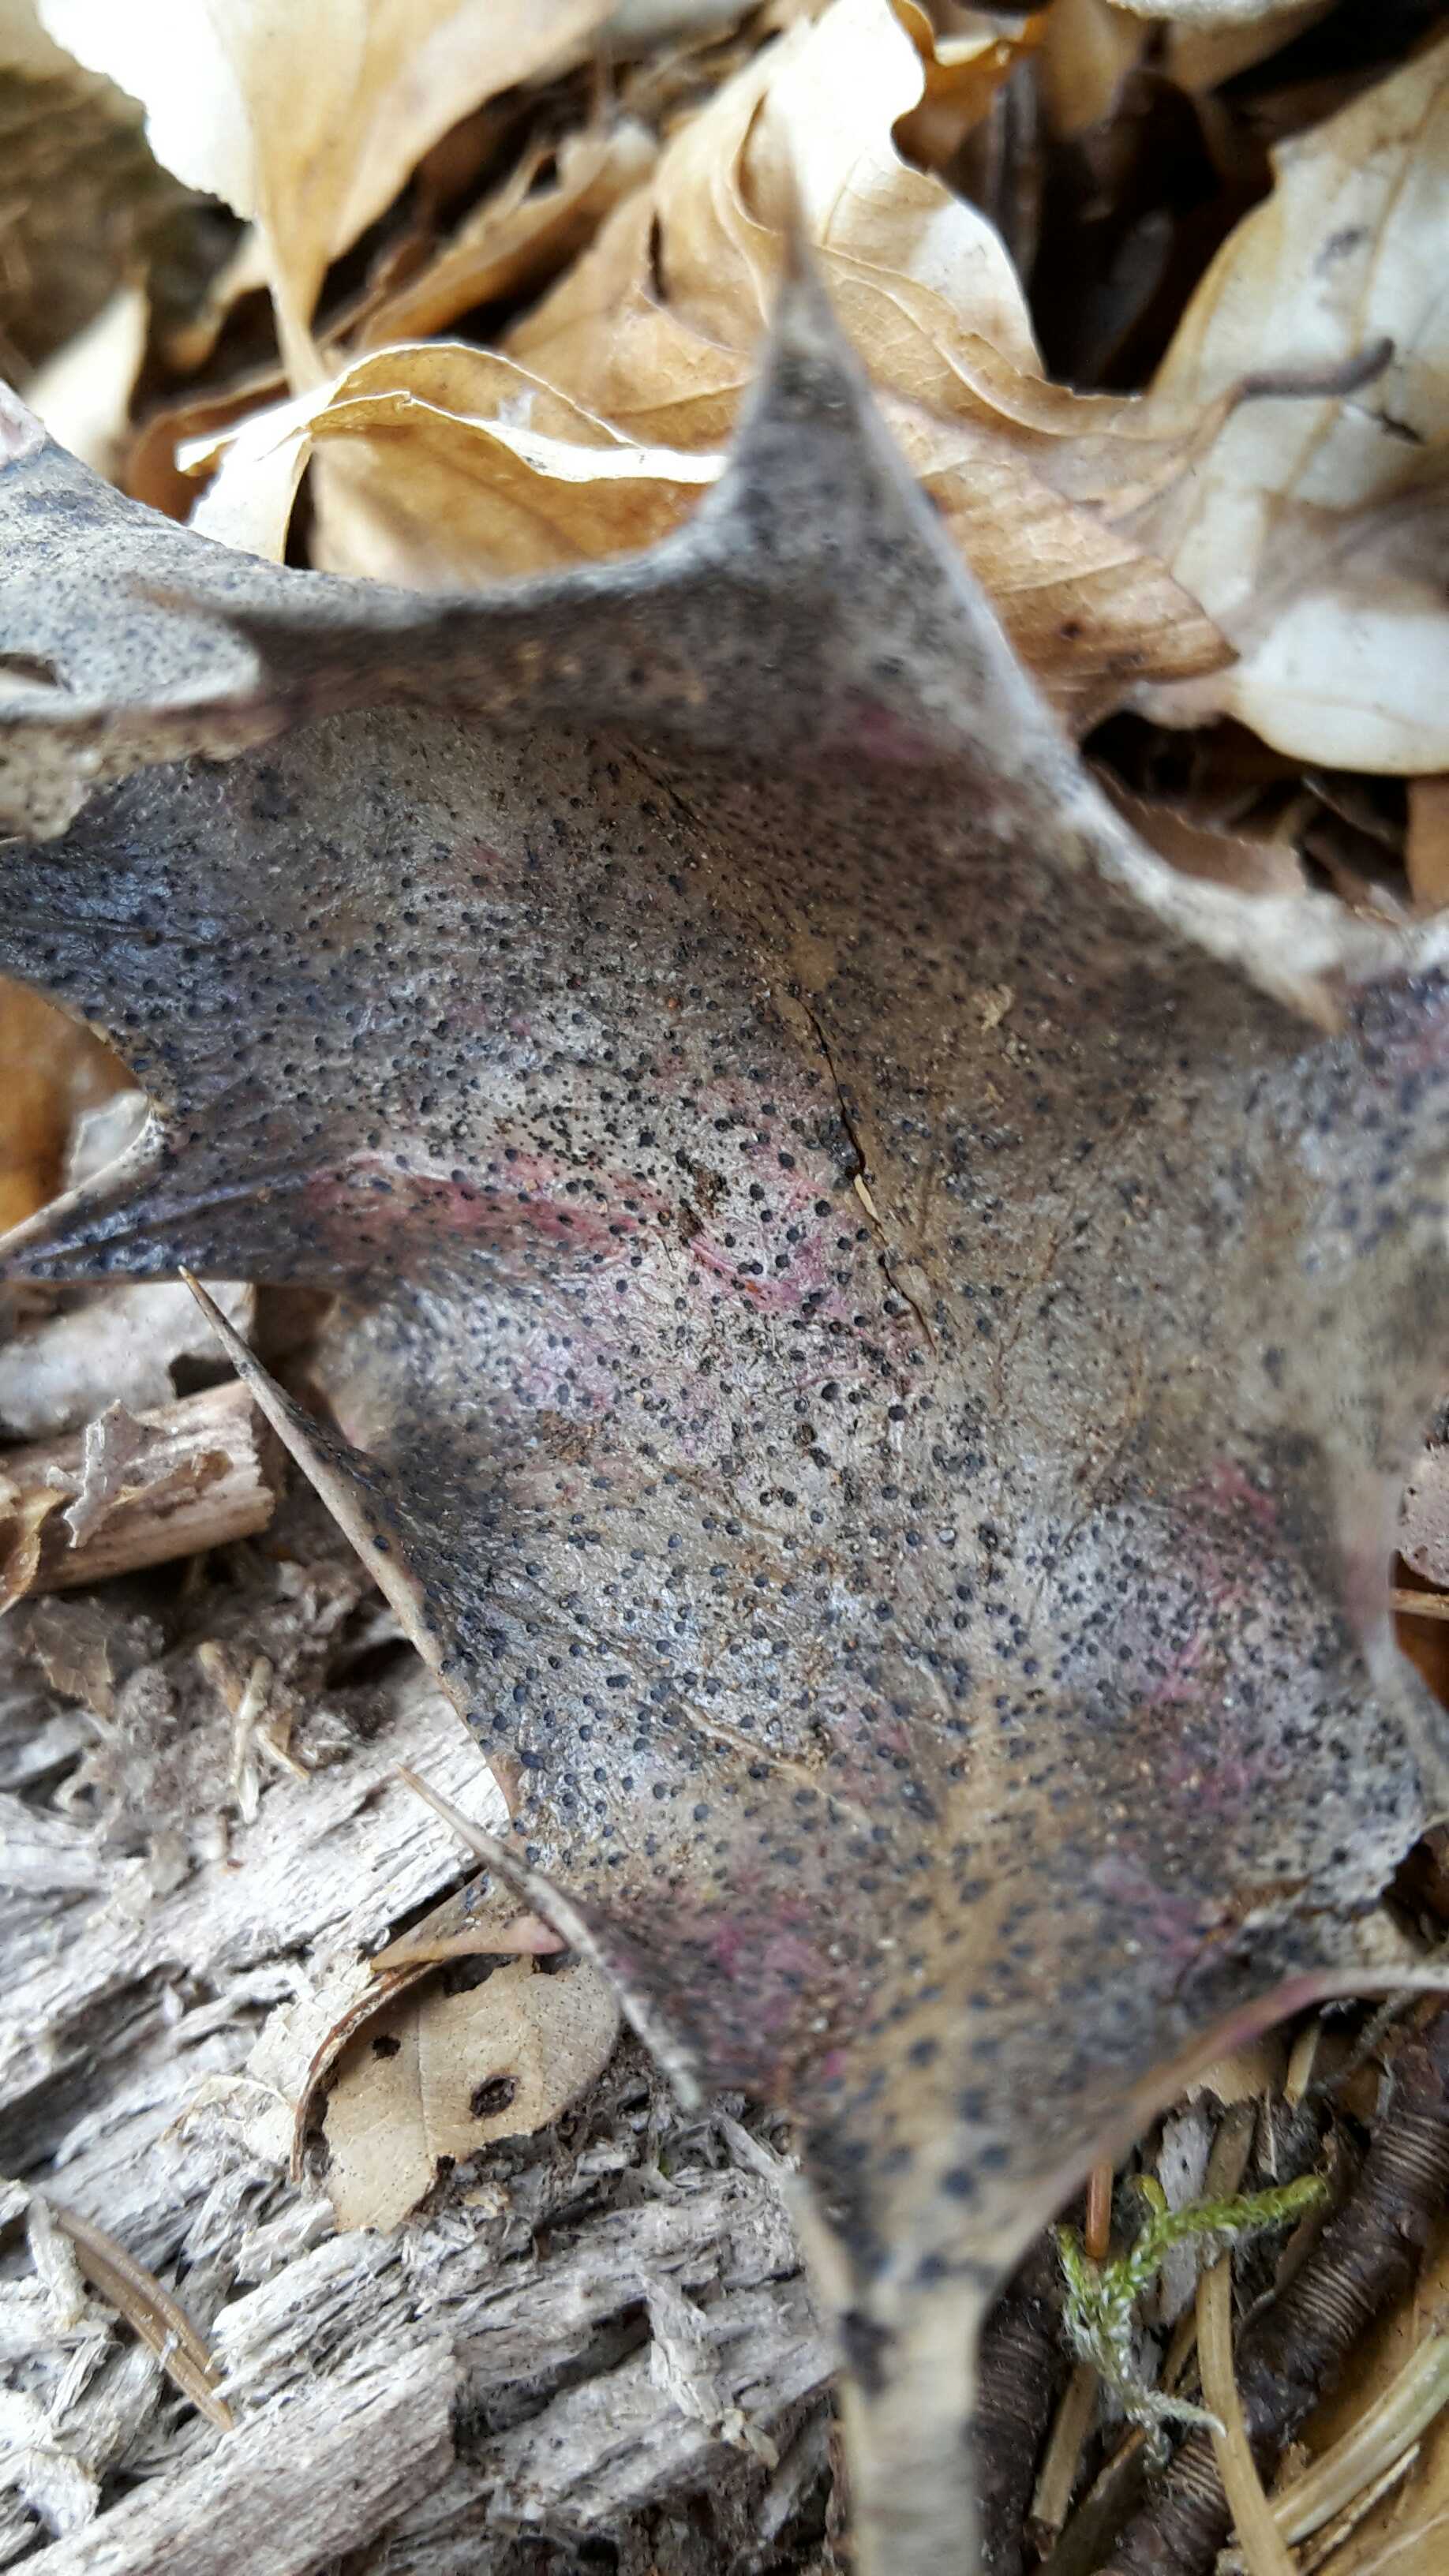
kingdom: Fungi
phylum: Ascomycota
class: Leotiomycetes
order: Helotiales
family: Cenangiaceae
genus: Trochila
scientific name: Trochila ilicina
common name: kristtorn-lågskive
